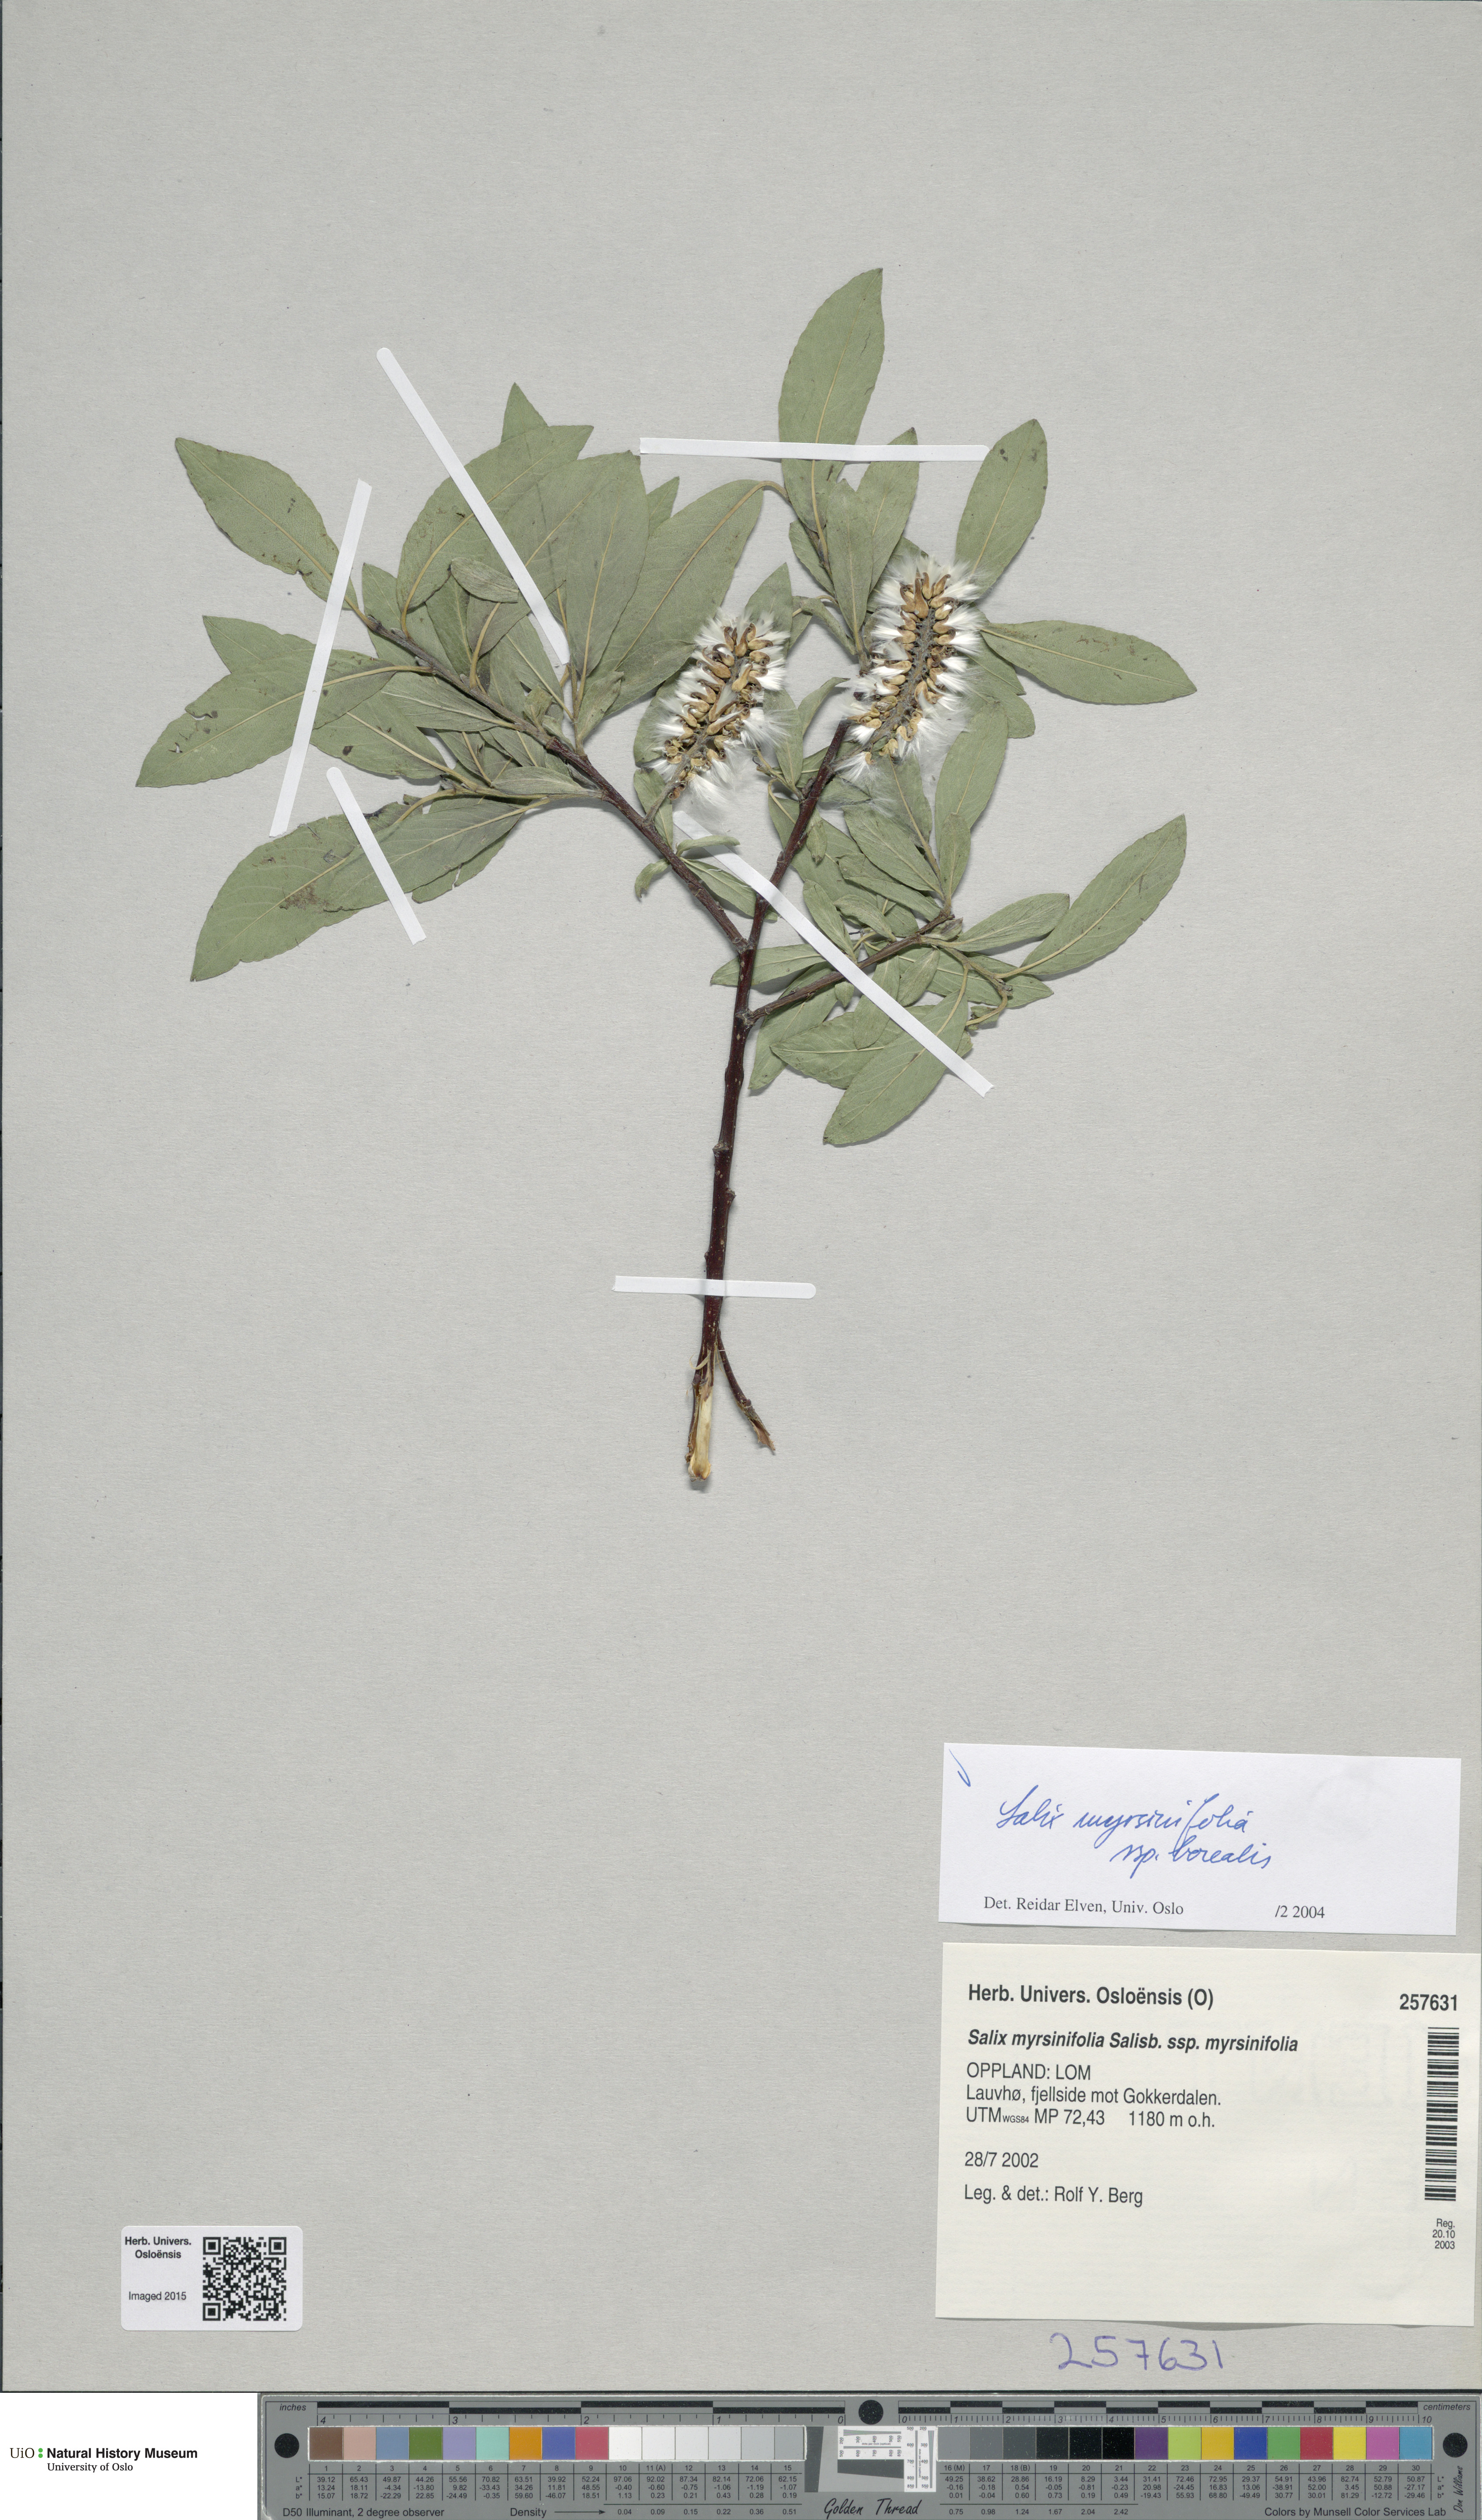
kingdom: Plantae
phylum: Tracheophyta
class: Magnoliopsida
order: Malpighiales
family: Salicaceae
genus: Salix
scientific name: Salix myrsinifolia
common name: Dark-leaved willow
